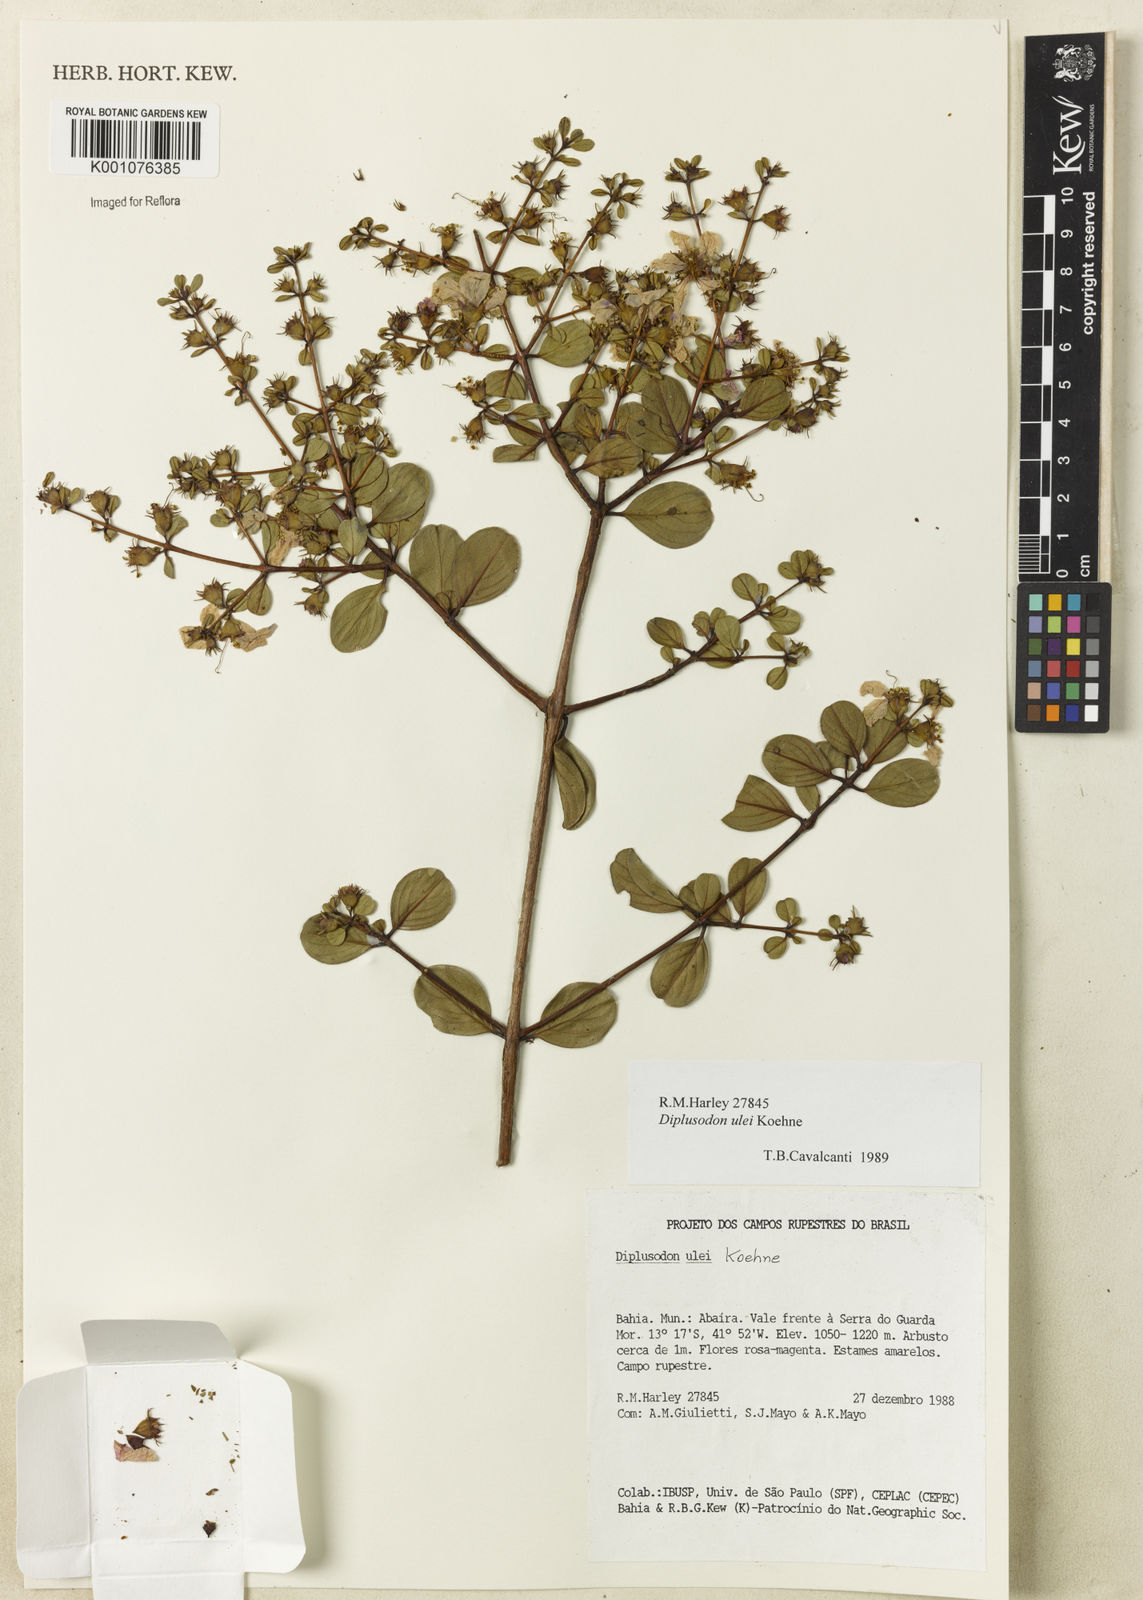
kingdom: Plantae
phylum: Tracheophyta
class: Magnoliopsida
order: Myrtales
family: Lythraceae
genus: Diplusodon
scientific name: Diplusodon ulei
